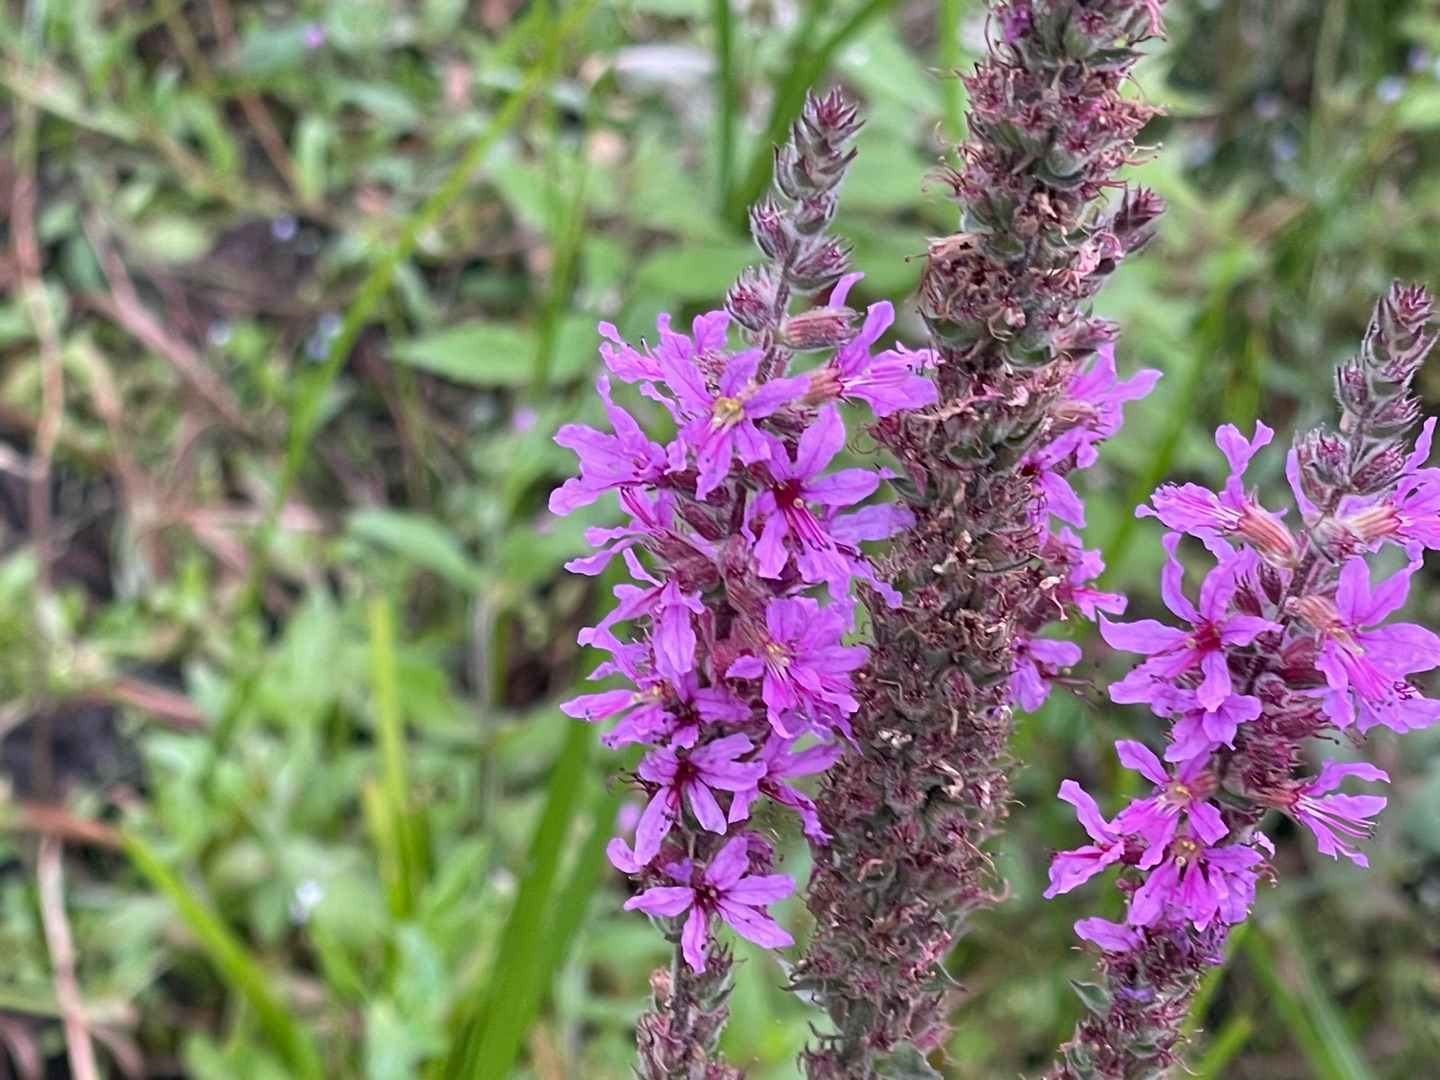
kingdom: Plantae
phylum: Tracheophyta
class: Magnoliopsida
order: Myrtales
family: Lythraceae
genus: Lythrum
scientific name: Lythrum salicaria
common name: Kattehale
